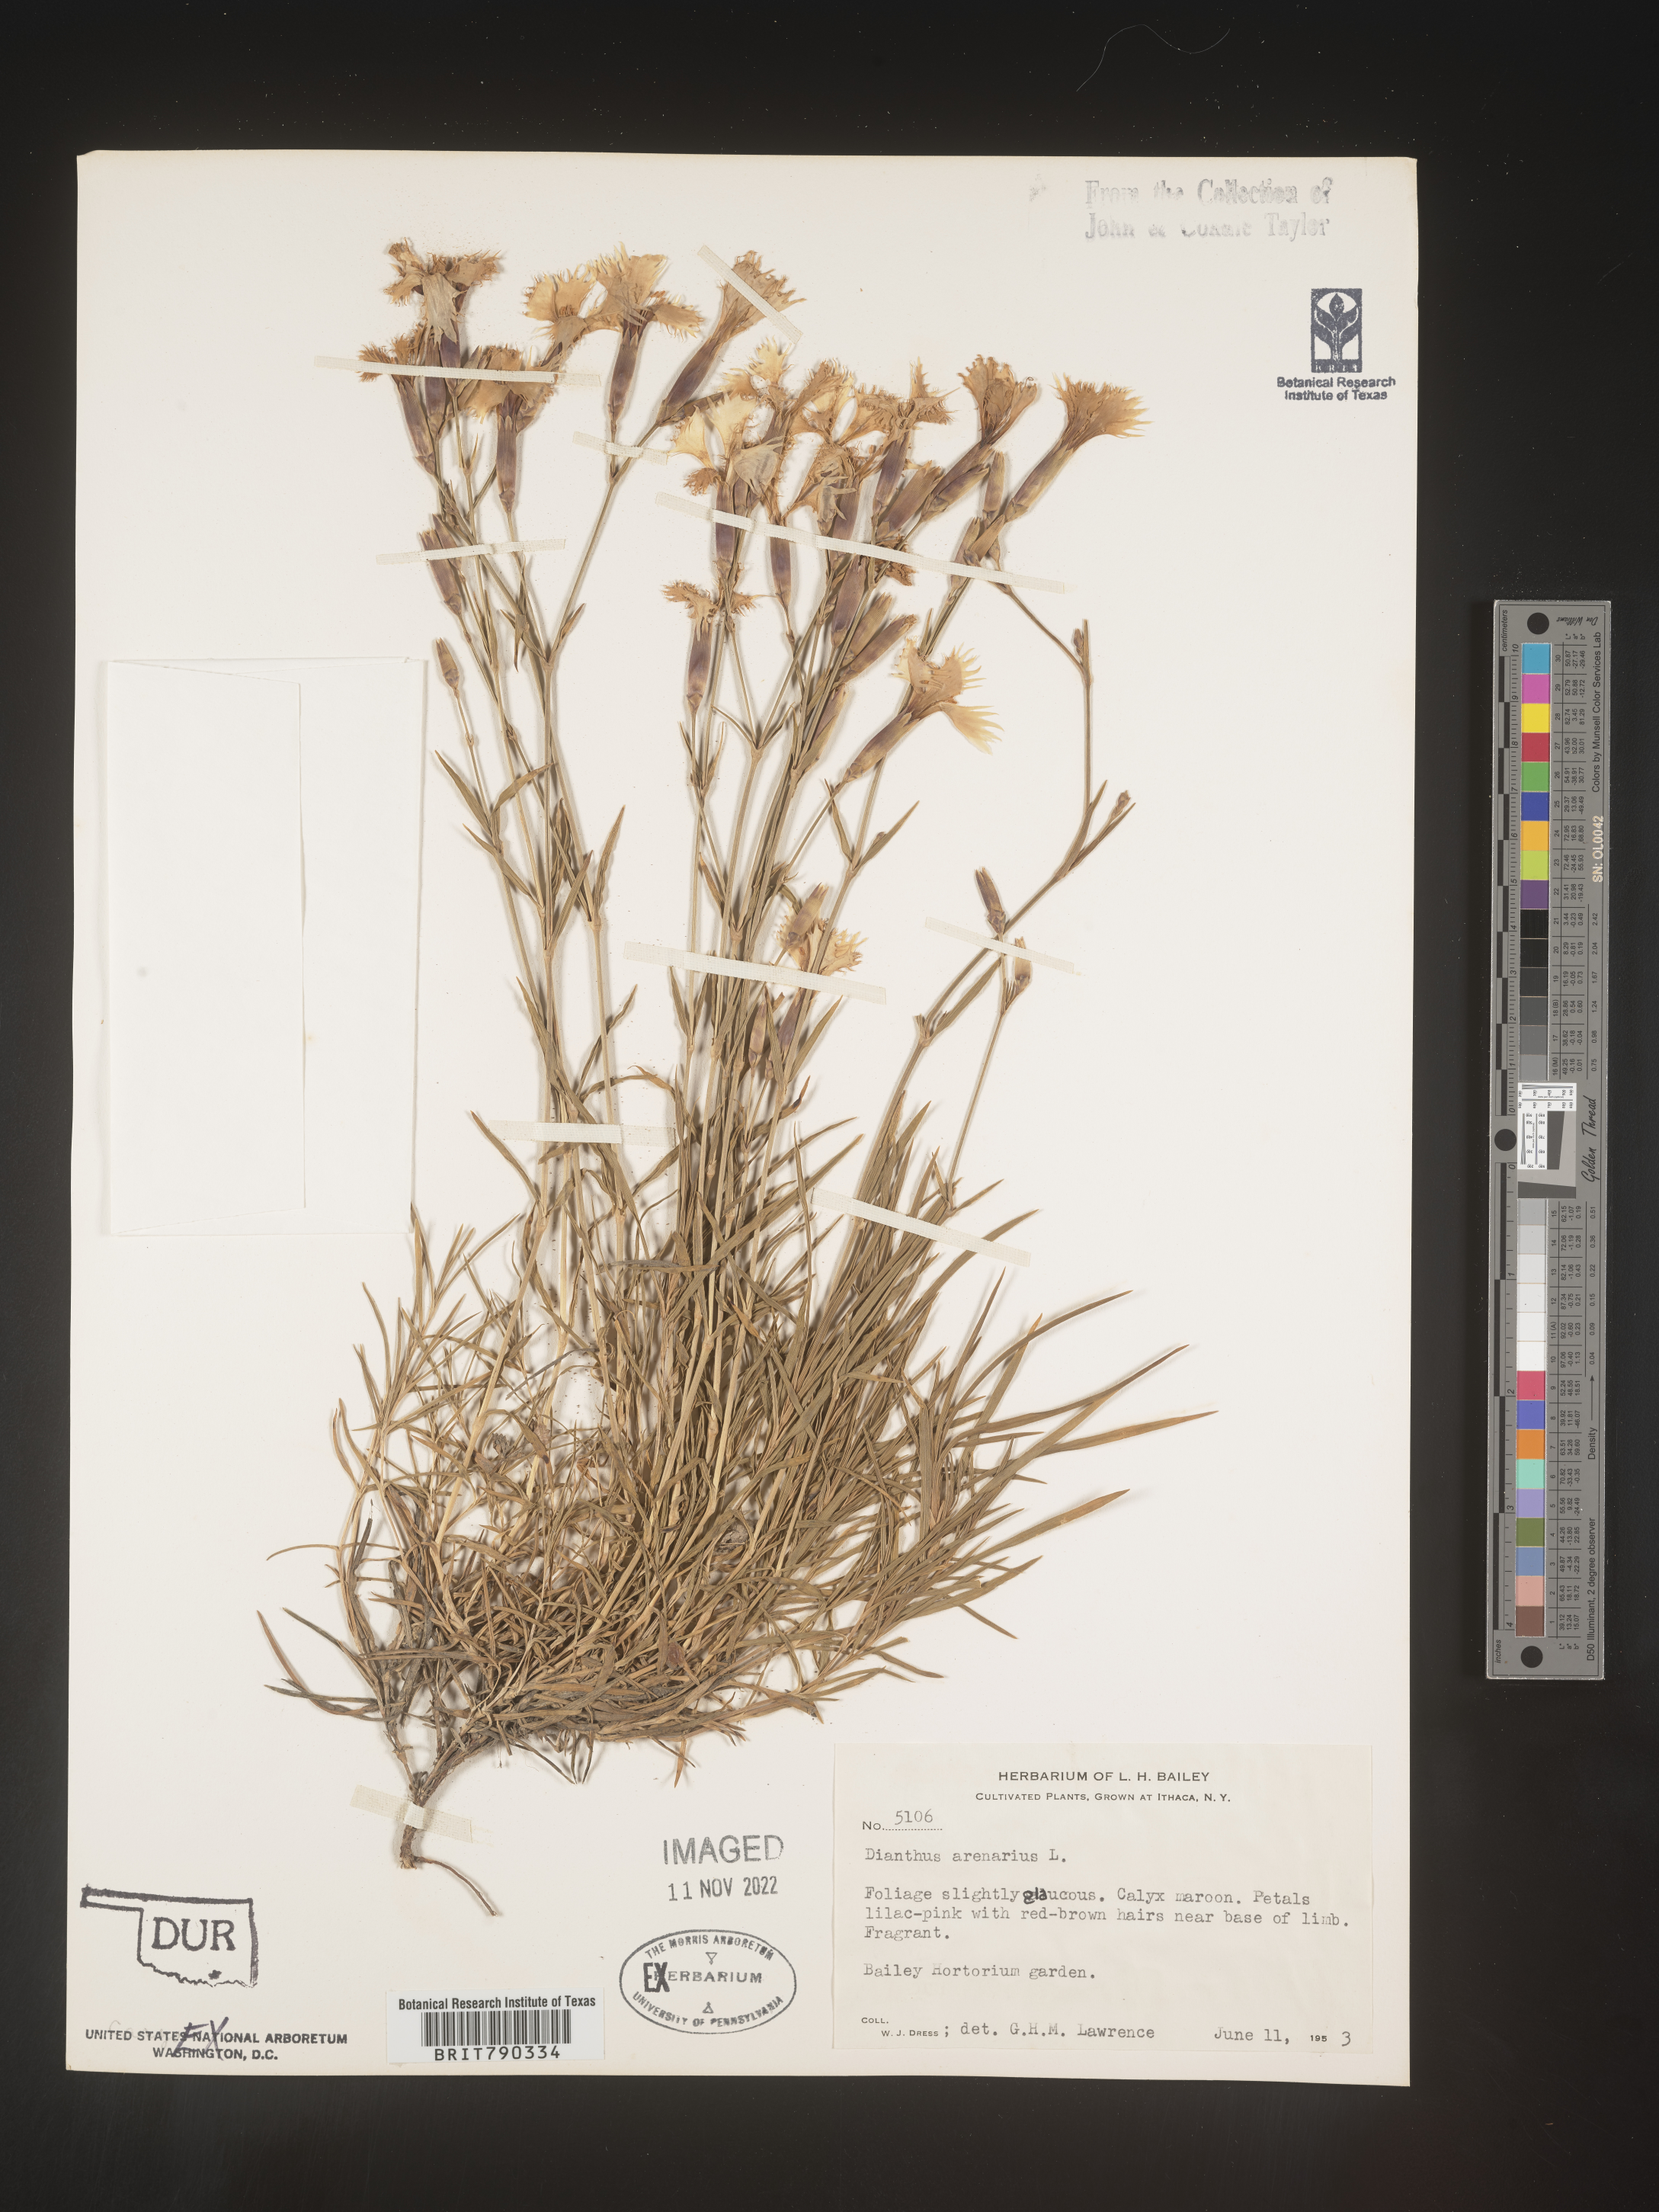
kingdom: Plantae
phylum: Tracheophyta
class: Magnoliopsida
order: Caryophyllales
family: Caryophyllaceae
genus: Dianthus
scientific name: Dianthus
